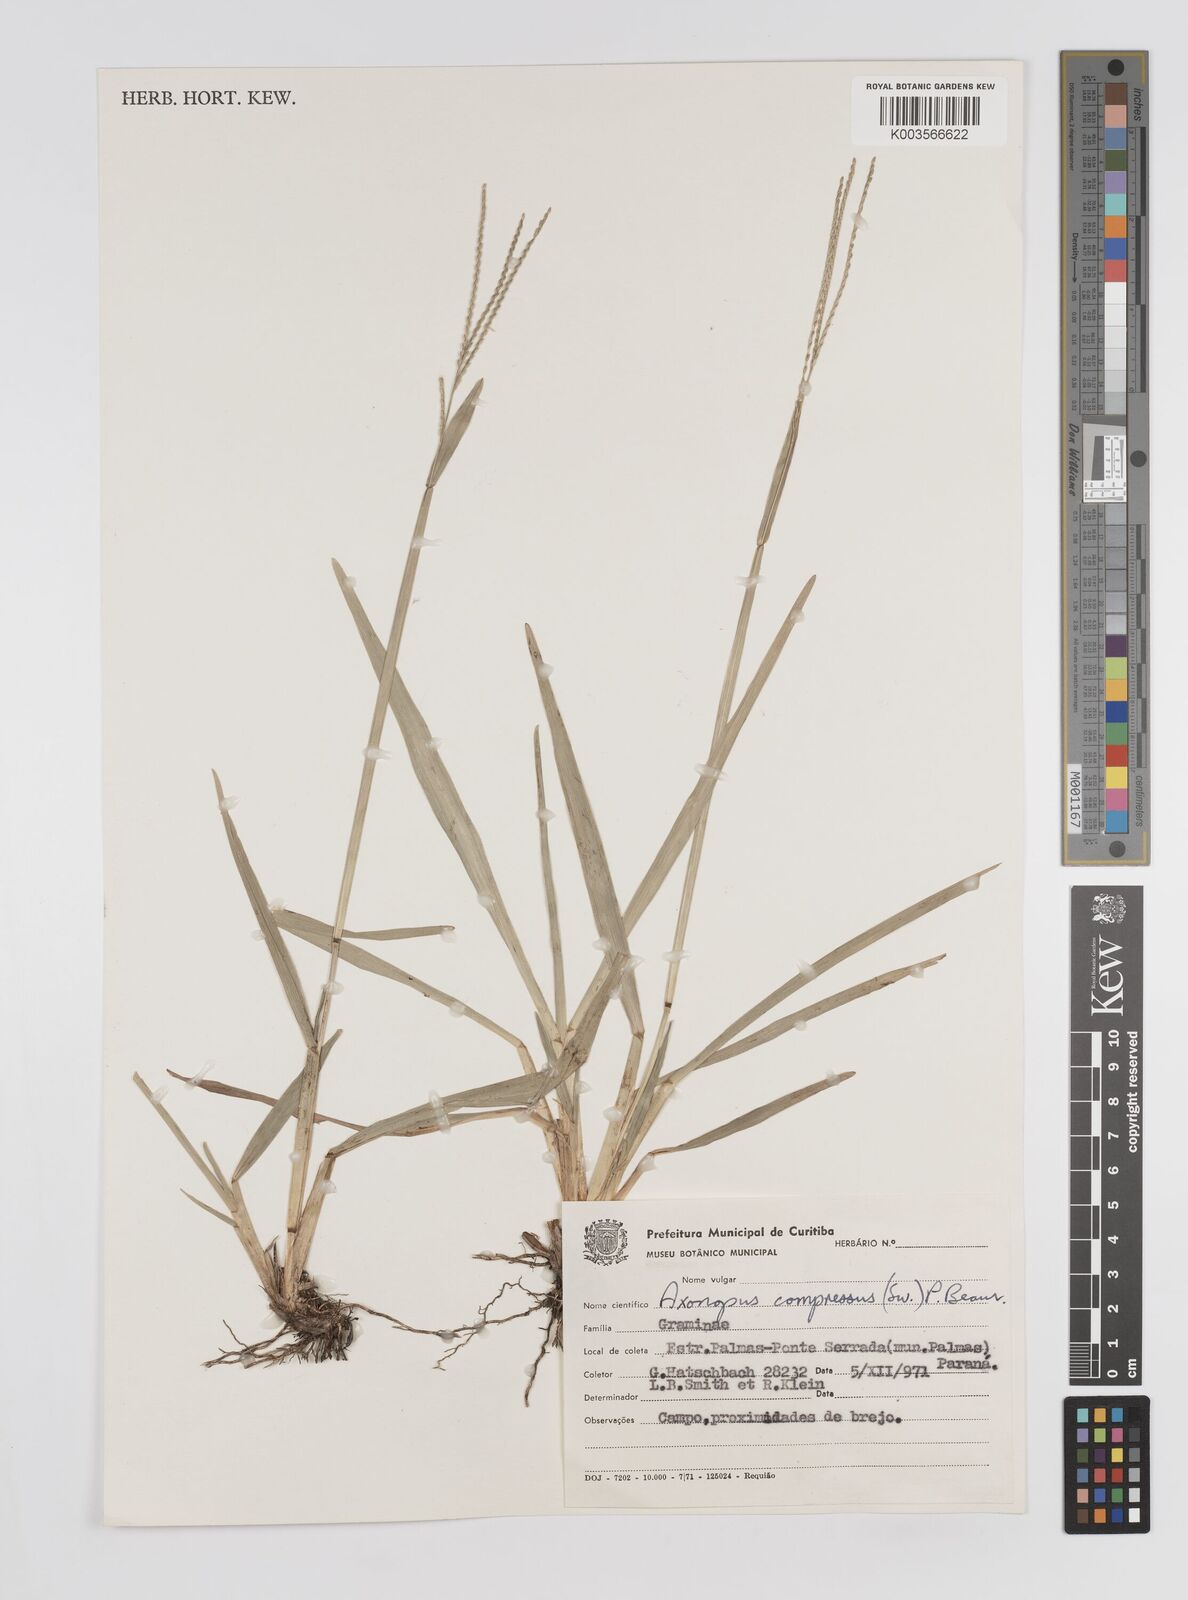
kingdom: Plantae
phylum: Tracheophyta
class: Liliopsida
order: Poales
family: Poaceae
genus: Axonopus
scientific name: Axonopus compressus
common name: American carpet grass
